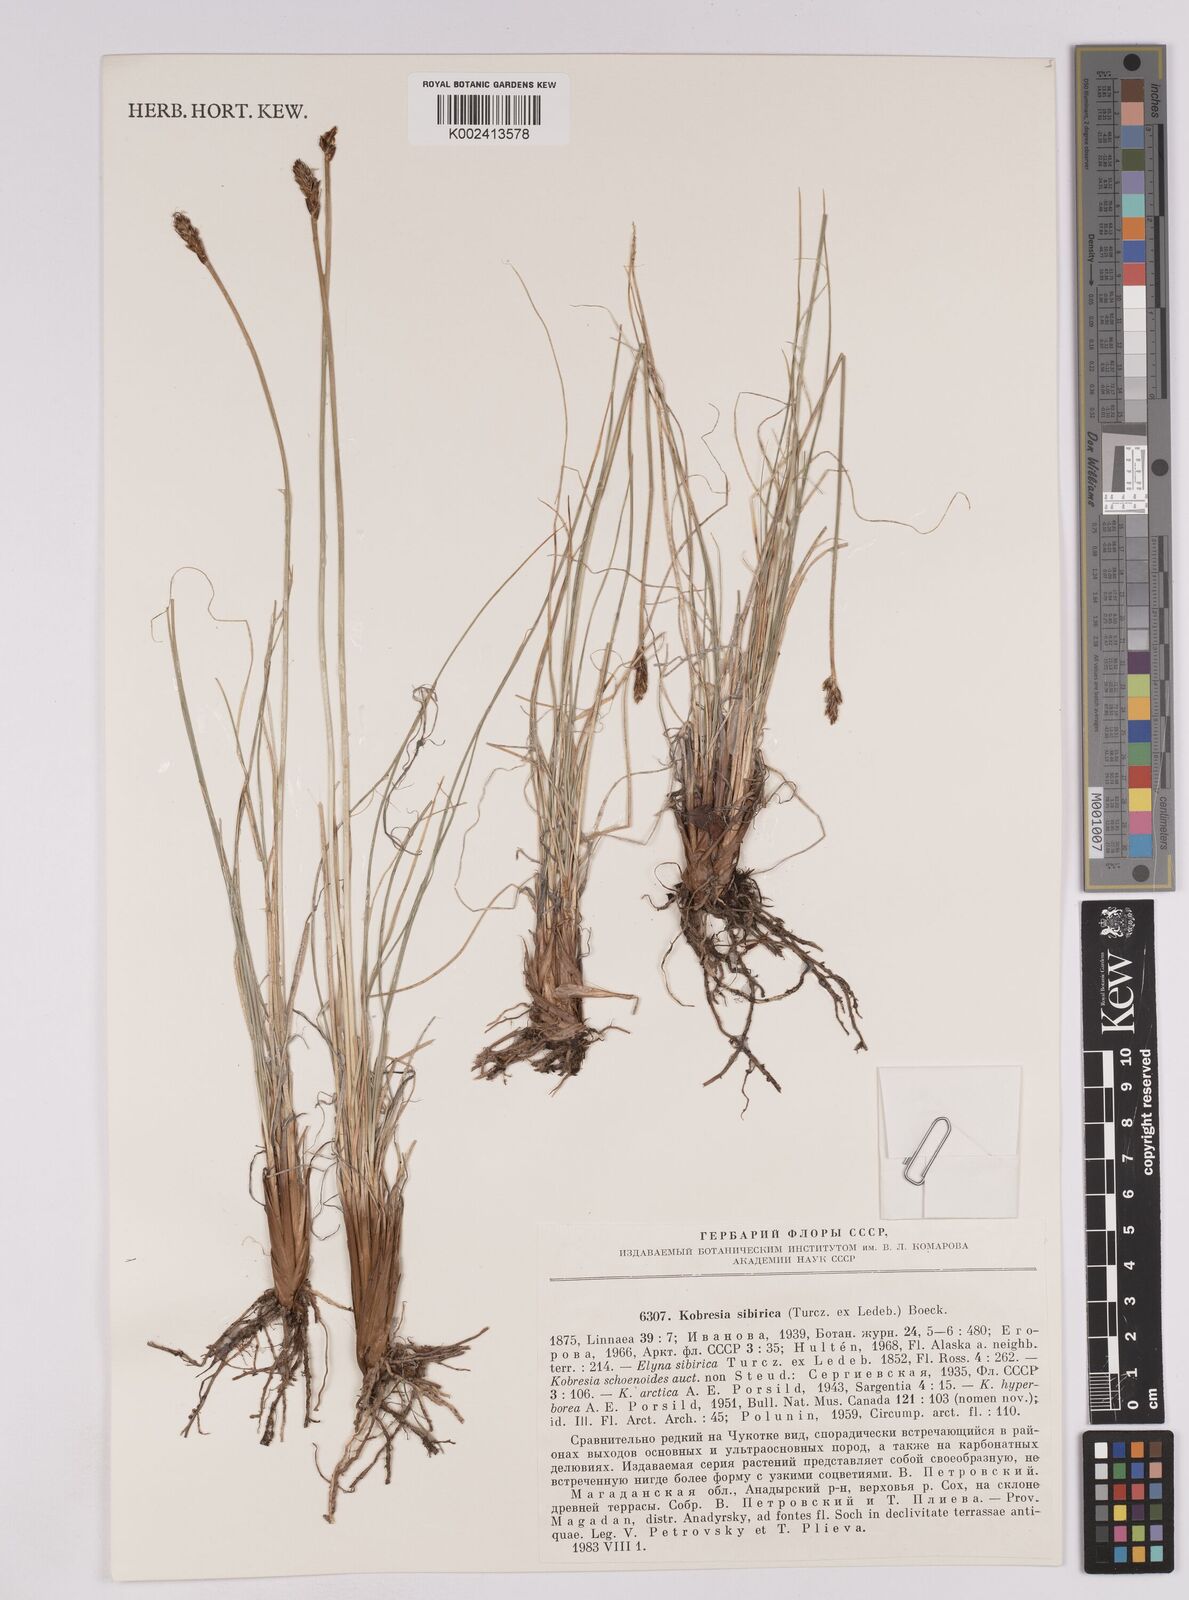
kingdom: Plantae
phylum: Tracheophyta
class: Liliopsida
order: Poales
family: Cyperaceae
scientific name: Cyperaceae
